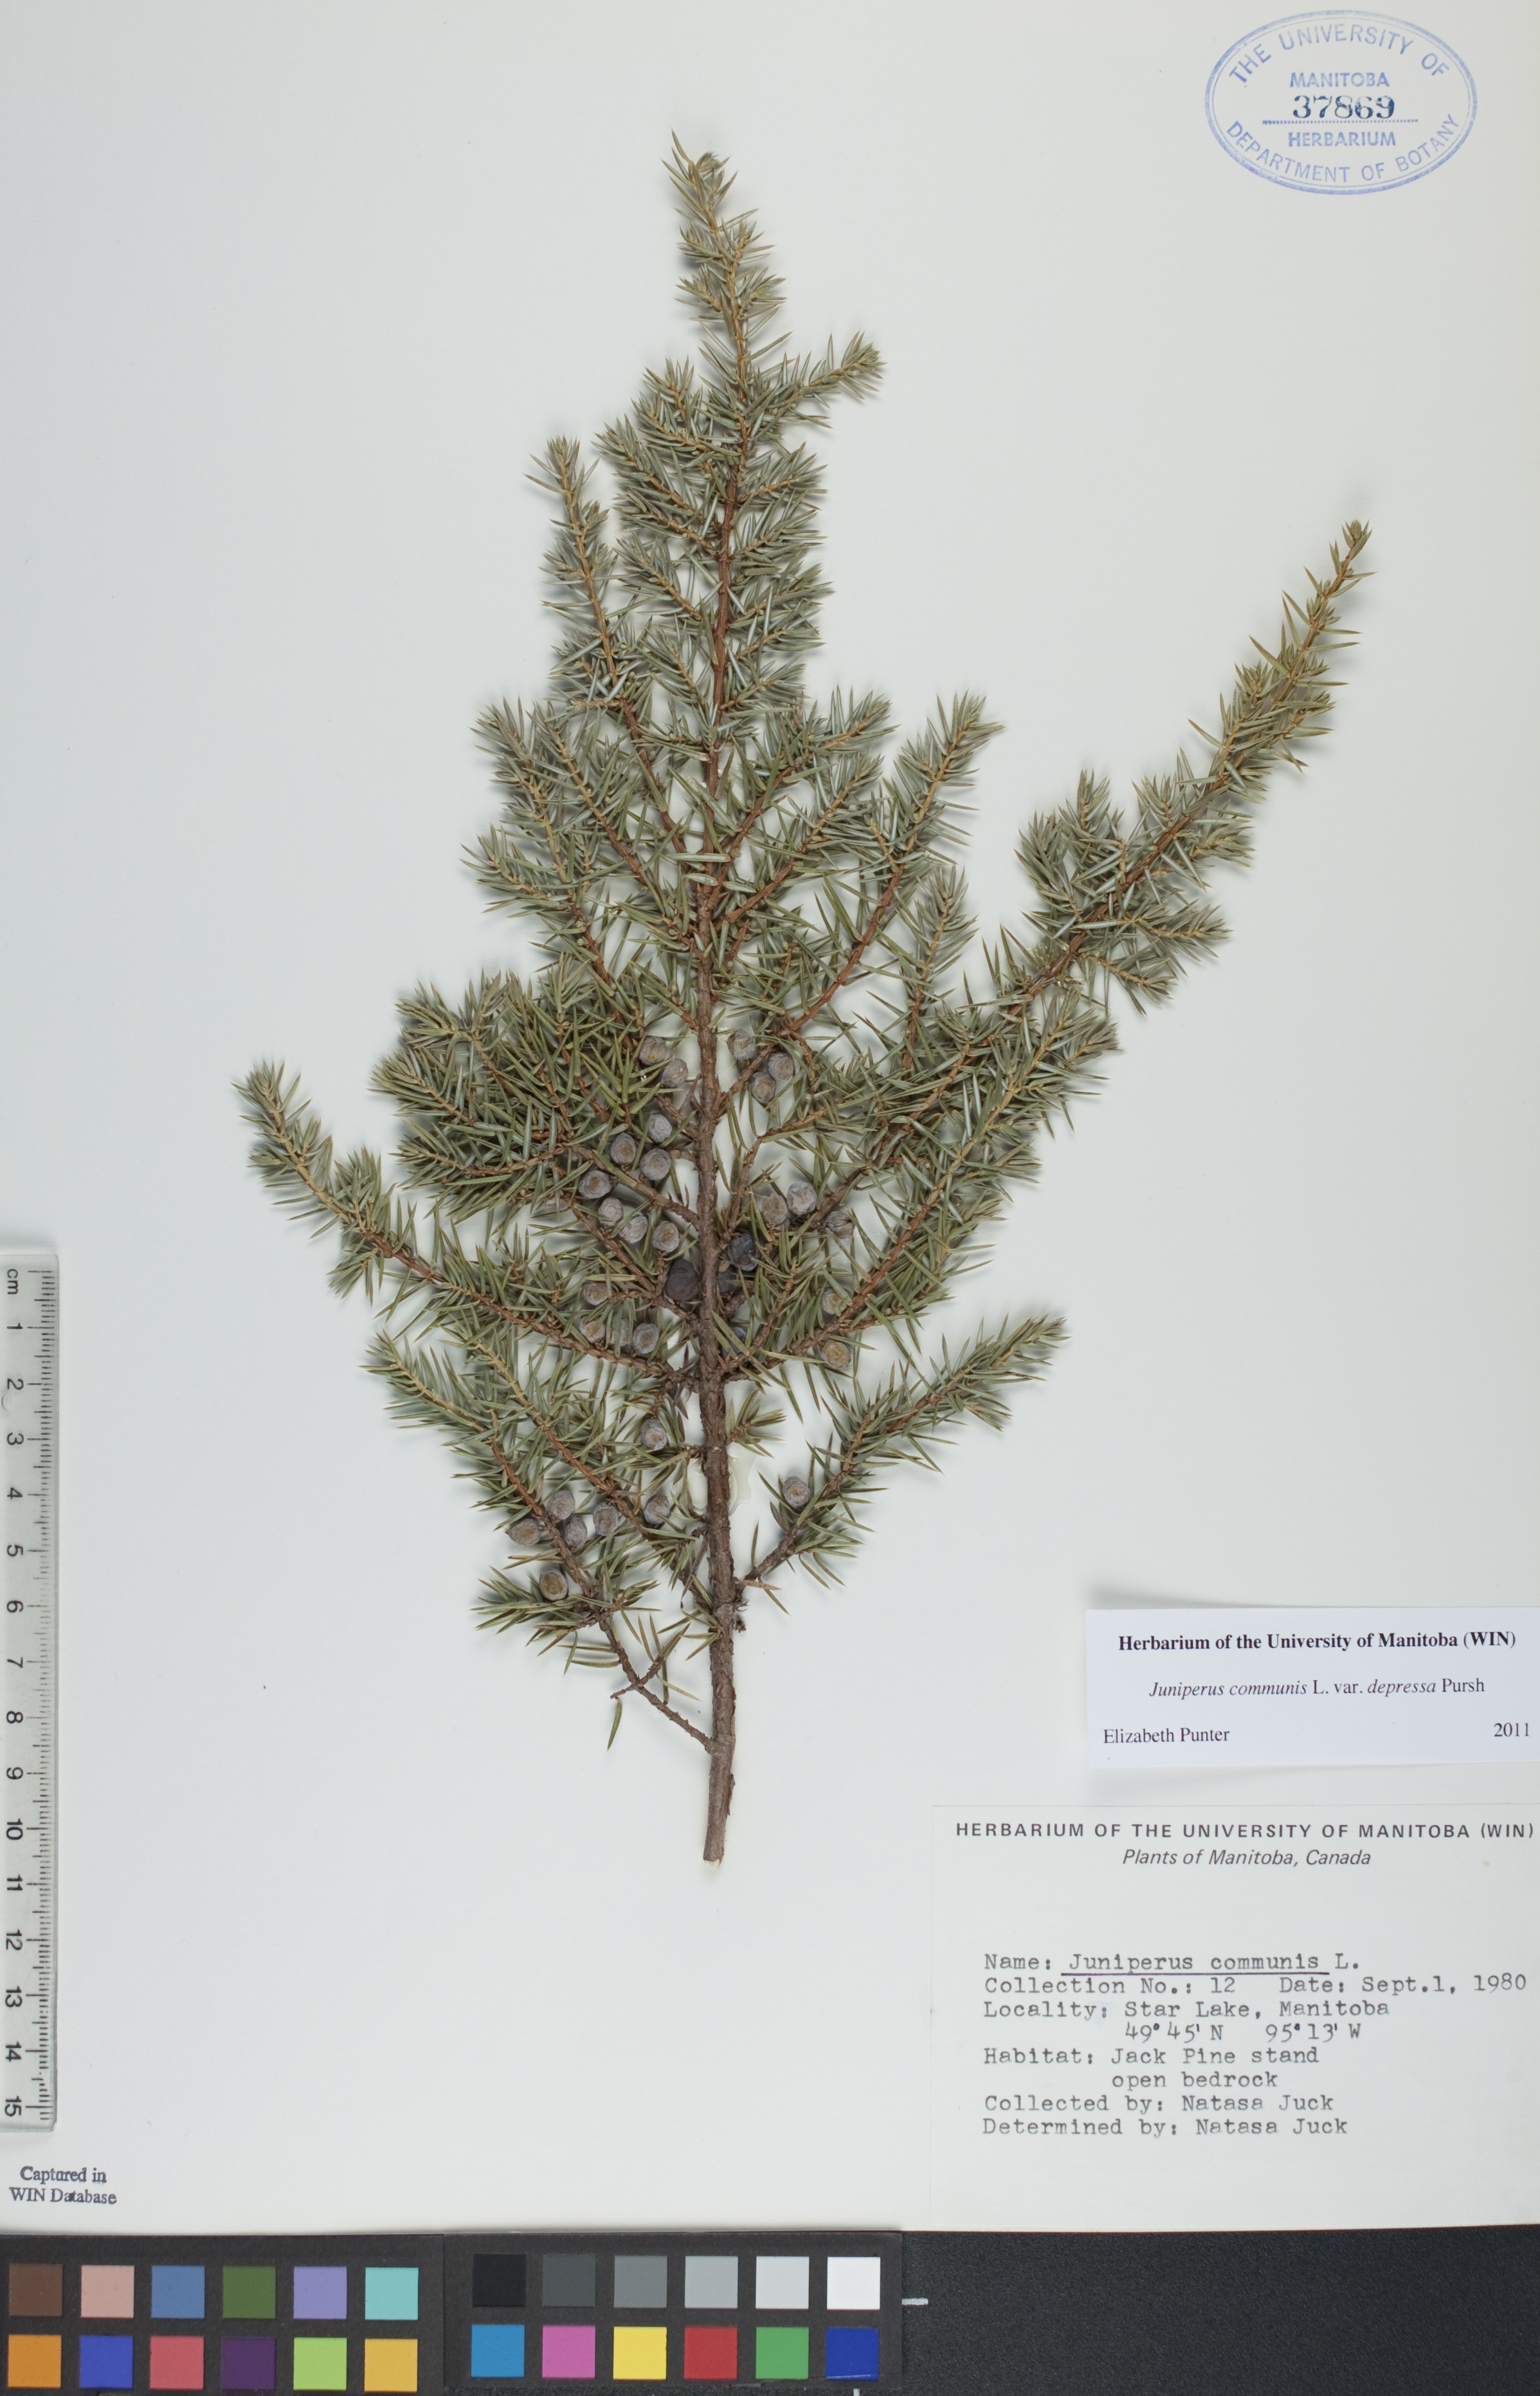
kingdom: Plantae
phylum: Tracheophyta
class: Pinopsida
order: Pinales
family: Cupressaceae
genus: Juniperus
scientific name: Juniperus communis
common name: Common juniper
